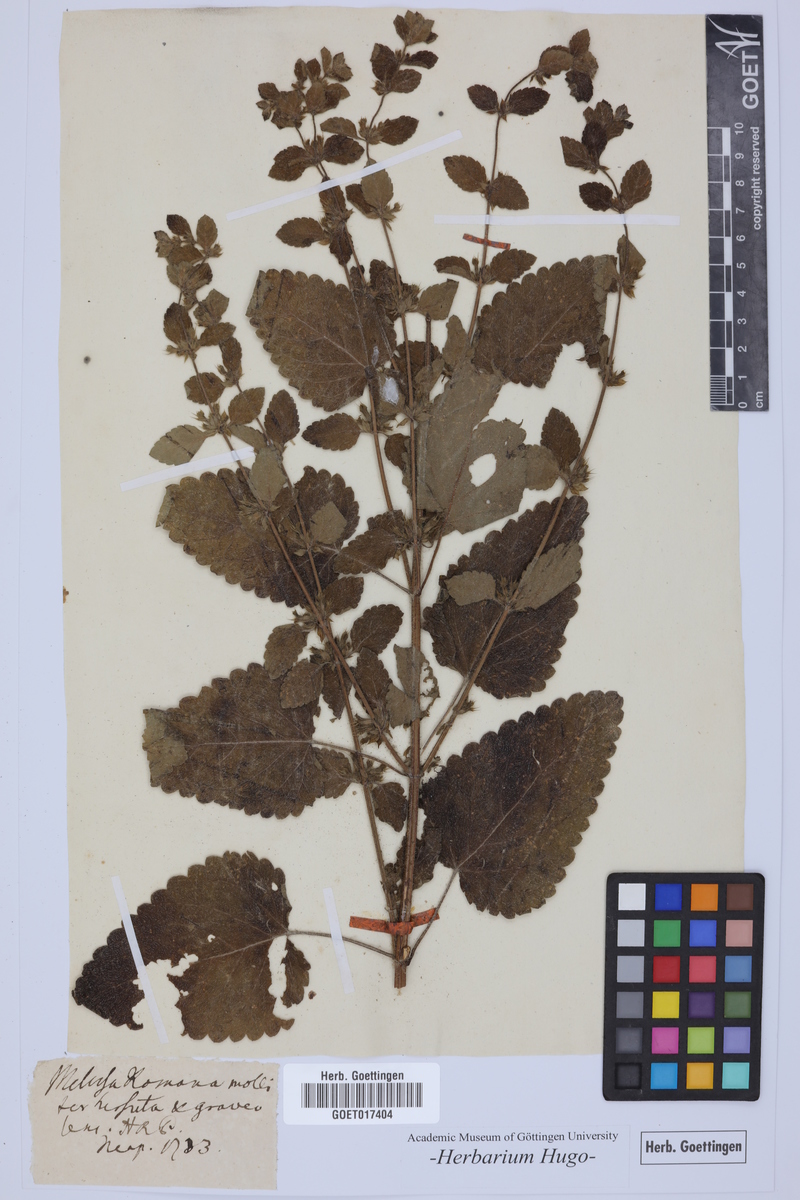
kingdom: Plantae
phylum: Tracheophyta
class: Magnoliopsida
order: Lamiales
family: Lamiaceae
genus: Melissa
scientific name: Melissa
